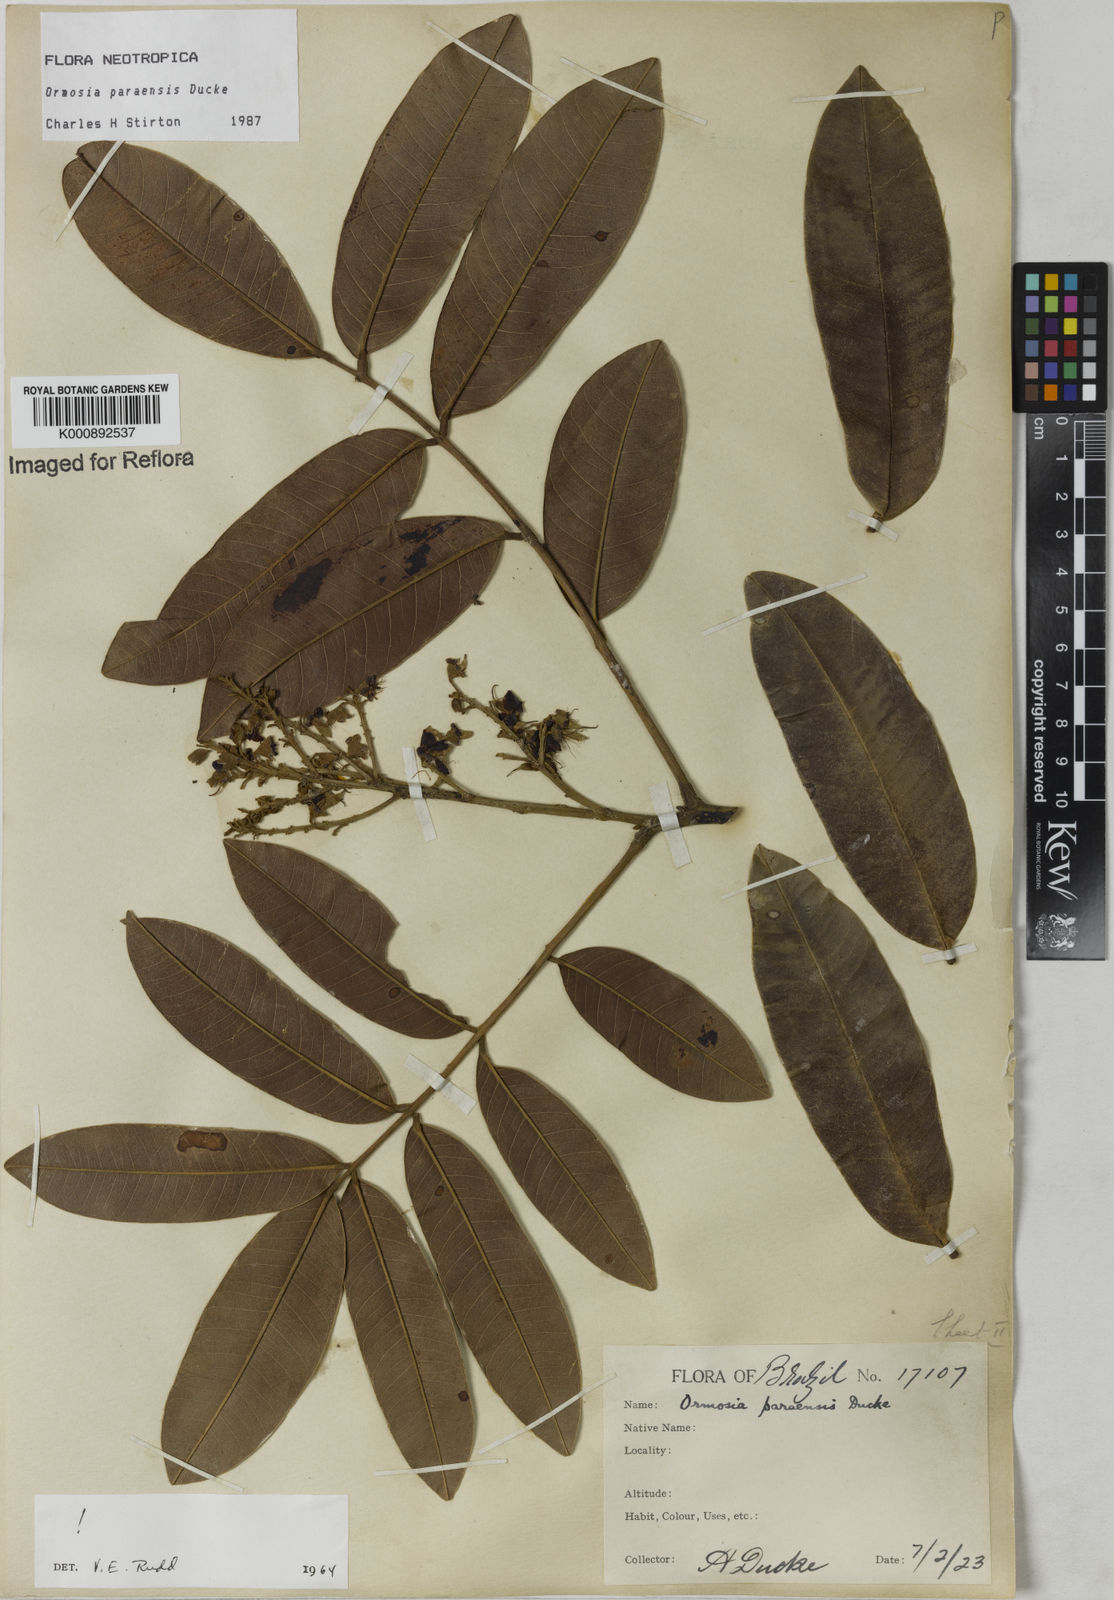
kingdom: Plantae
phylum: Tracheophyta
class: Magnoliopsida
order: Fabales
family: Fabaceae
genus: Ormosia
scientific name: Ormosia paraensis
